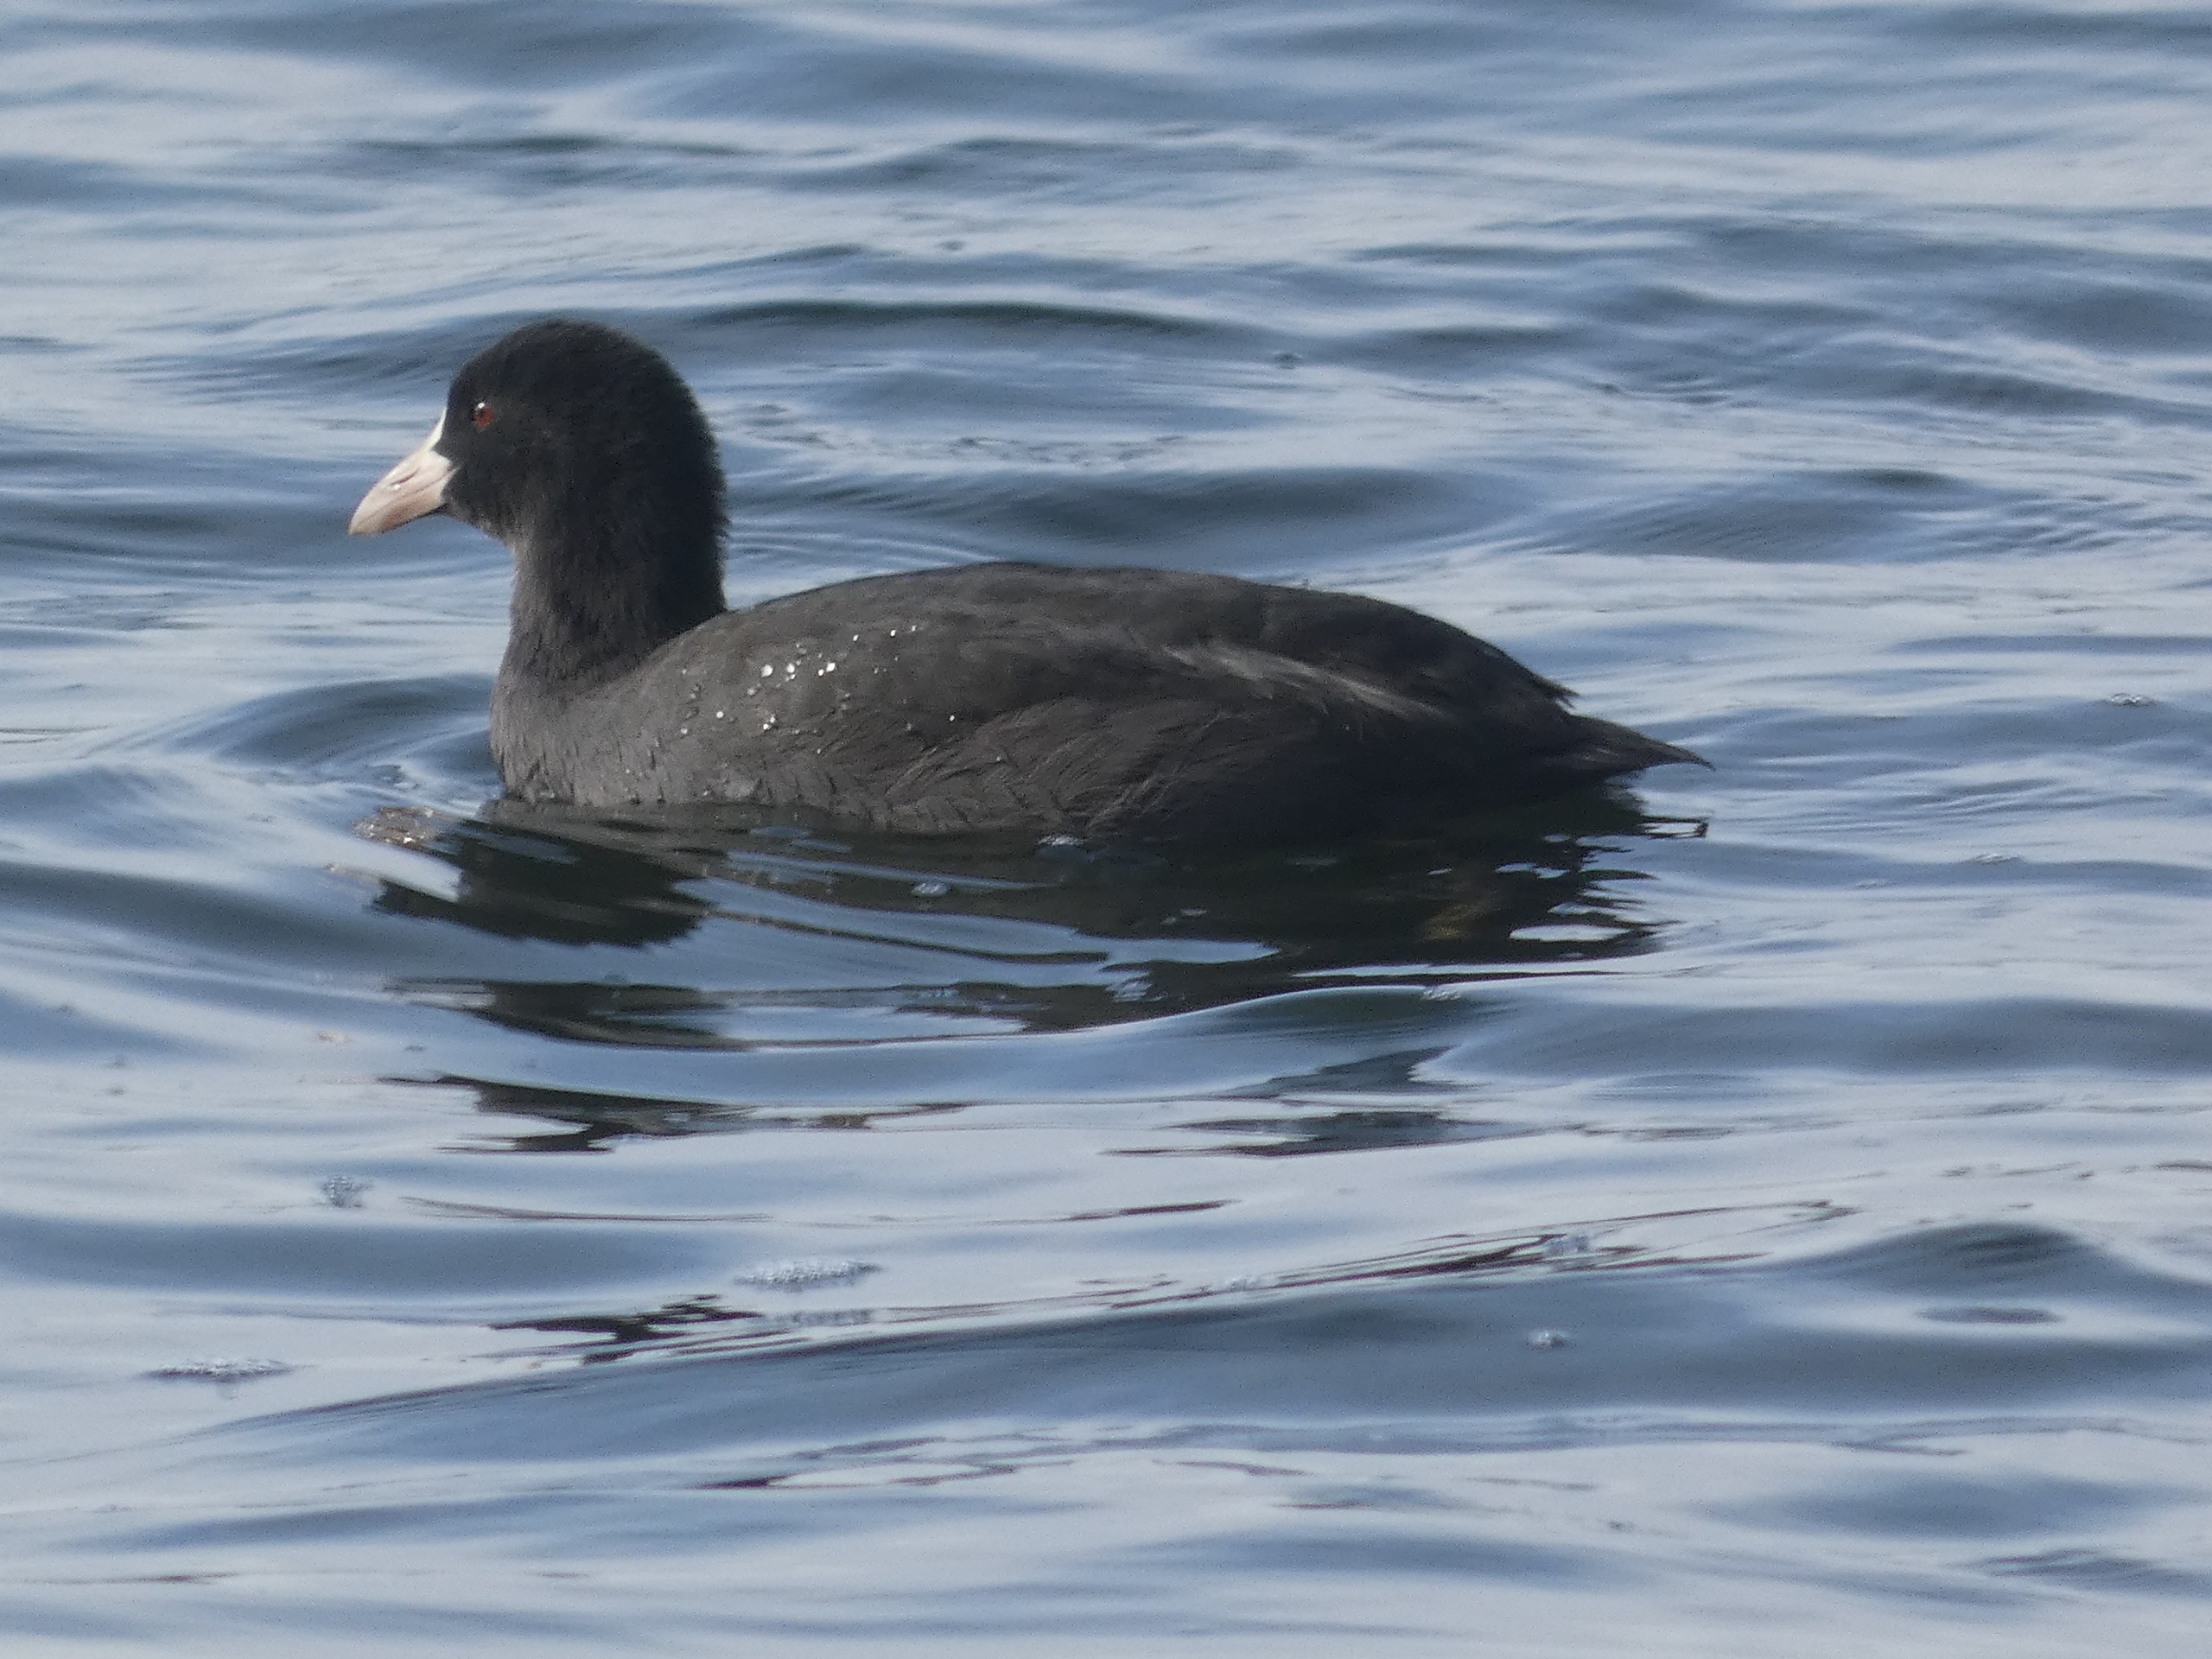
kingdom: Animalia
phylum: Chordata
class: Aves
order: Gruiformes
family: Rallidae
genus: Fulica
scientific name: Fulica atra
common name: Blishøne
